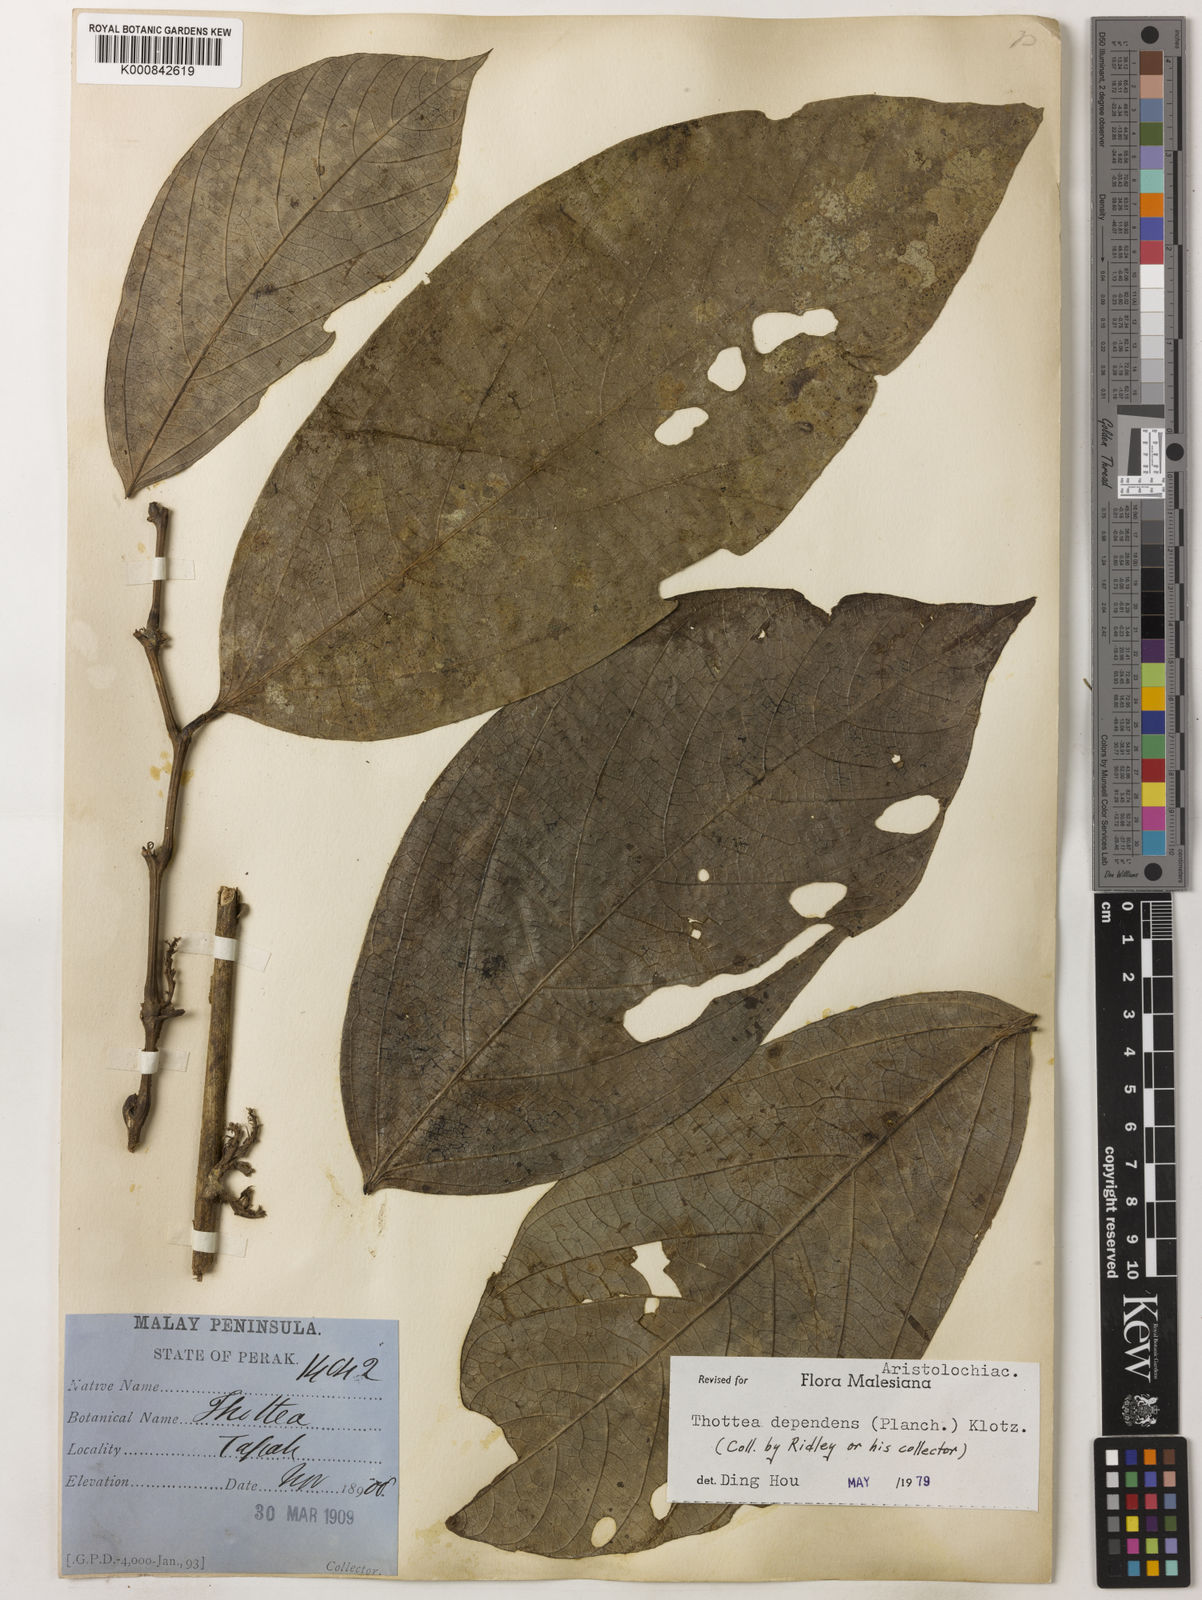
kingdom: Plantae
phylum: Tracheophyta
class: Magnoliopsida
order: Piperales
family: Aristolochiaceae
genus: Thottea
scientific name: Thottea dependens
